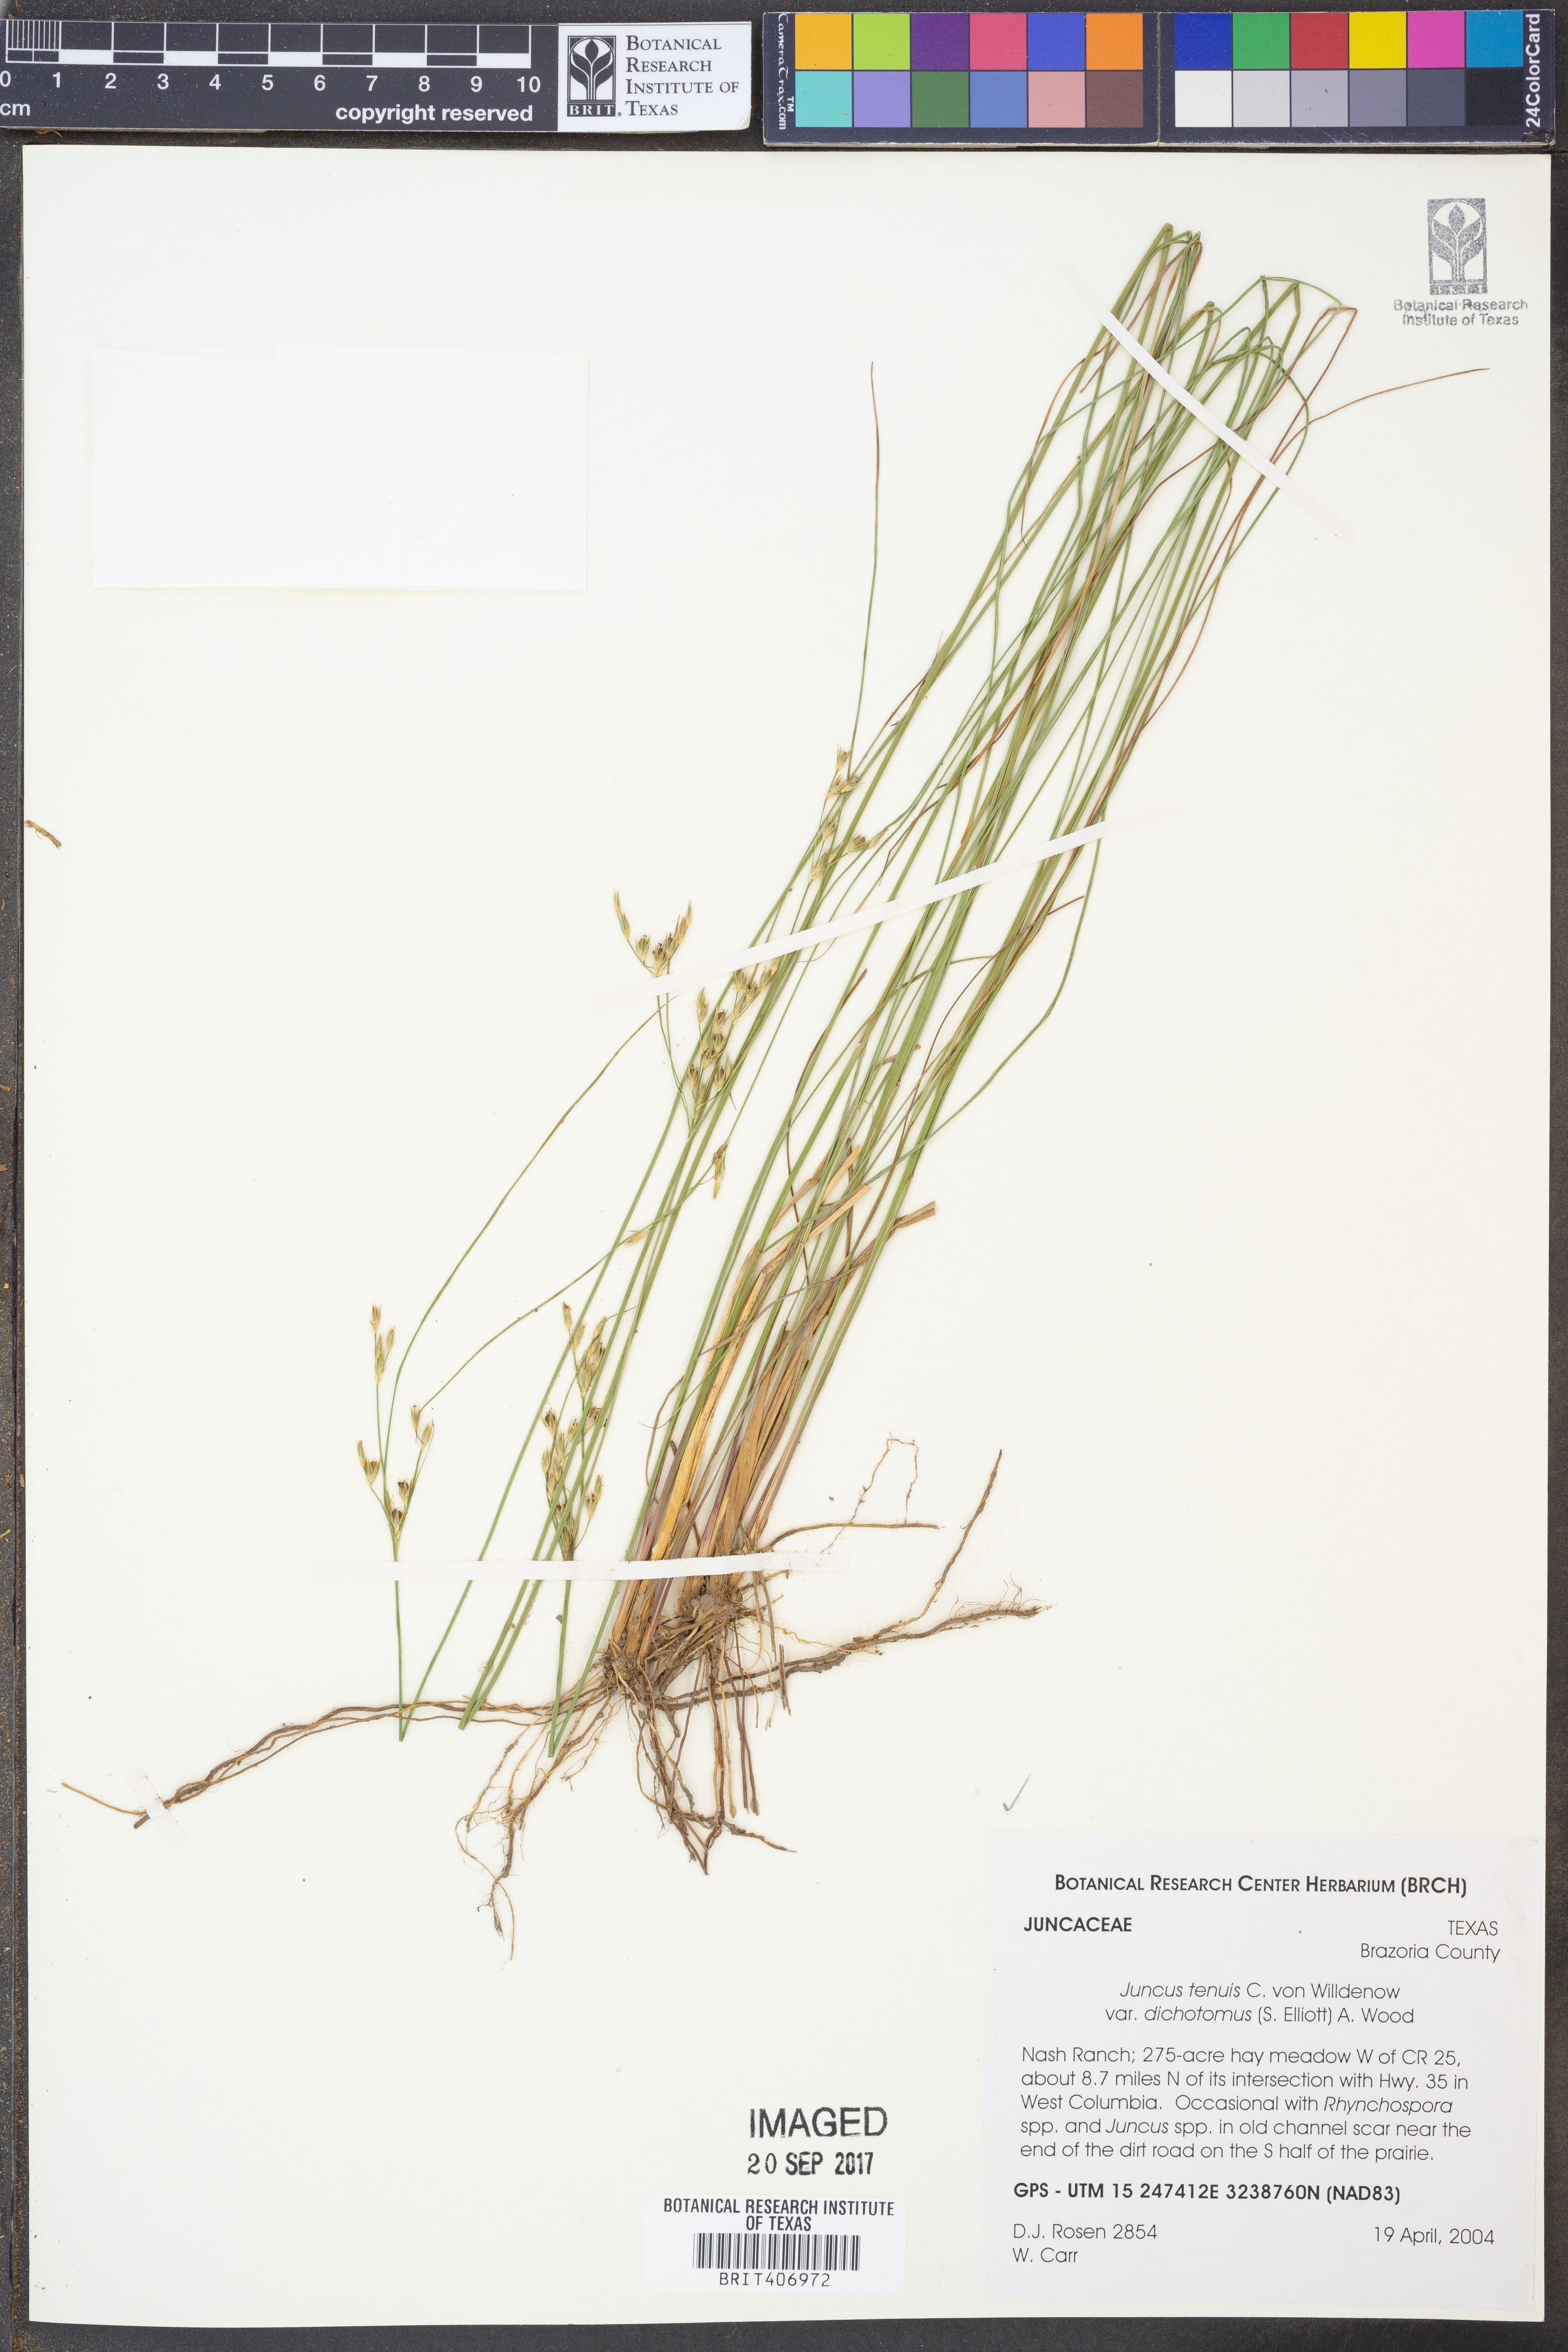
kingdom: Plantae
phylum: Tracheophyta
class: Liliopsida
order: Poales
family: Juncaceae
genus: Juncus
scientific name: Juncus dichotomus
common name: Forked rush
